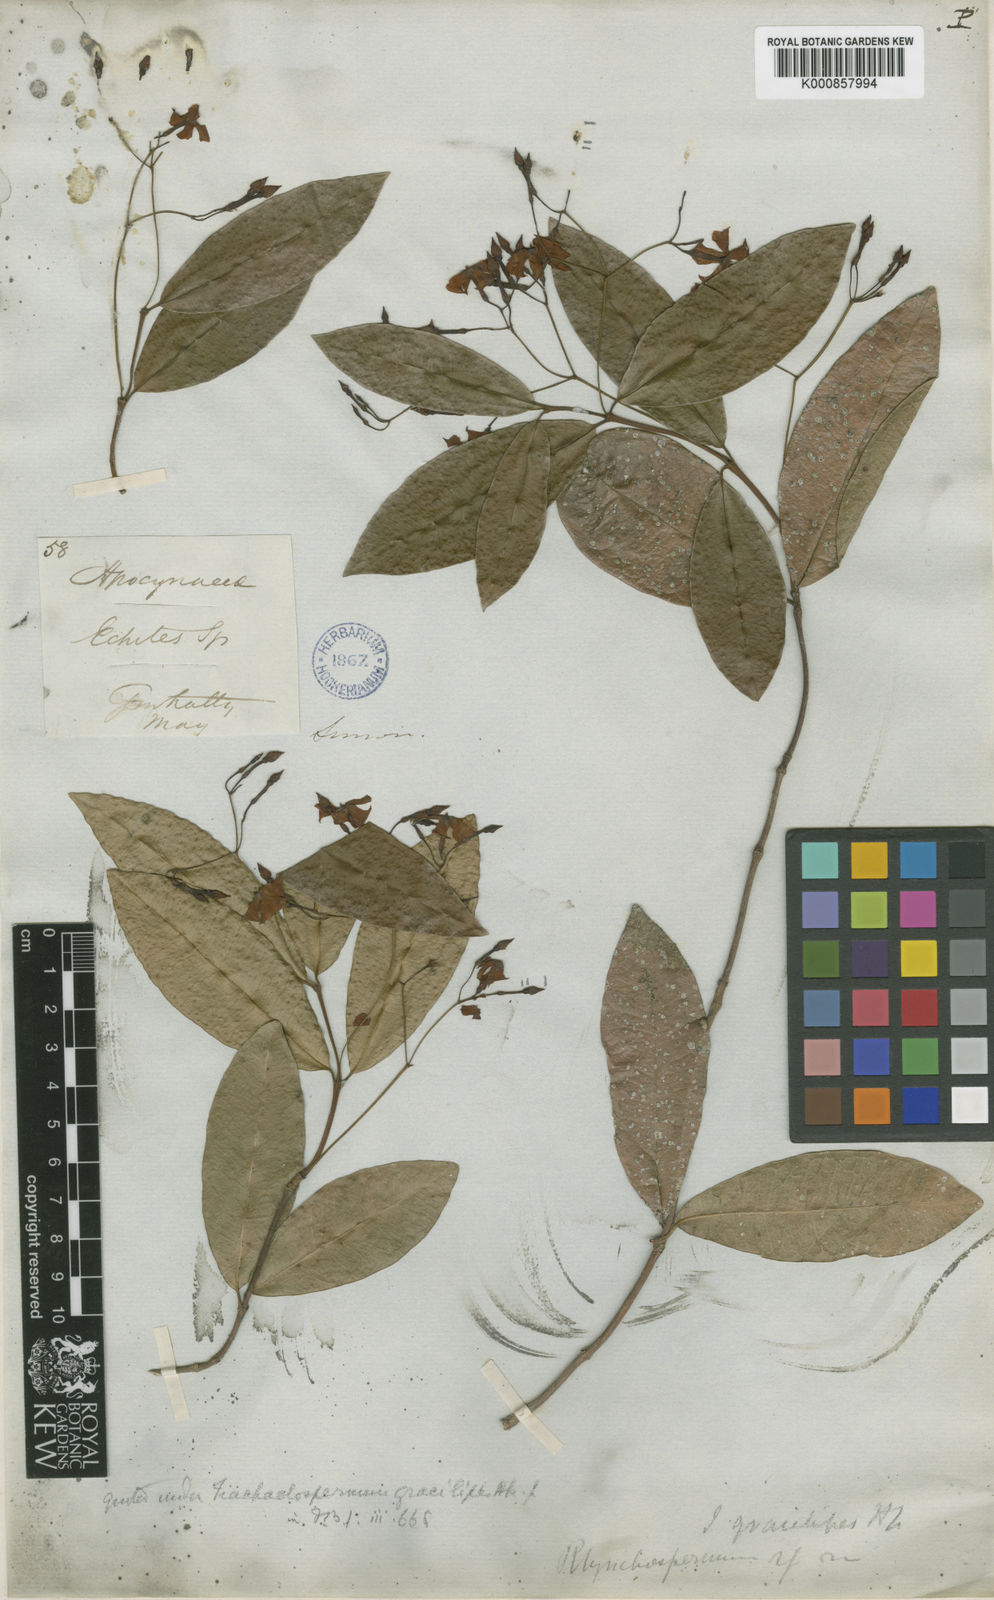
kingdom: Plantae
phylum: Tracheophyta
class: Magnoliopsida
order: Gentianales
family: Apocynaceae
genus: Trachelospermum
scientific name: Trachelospermum gracilipes
